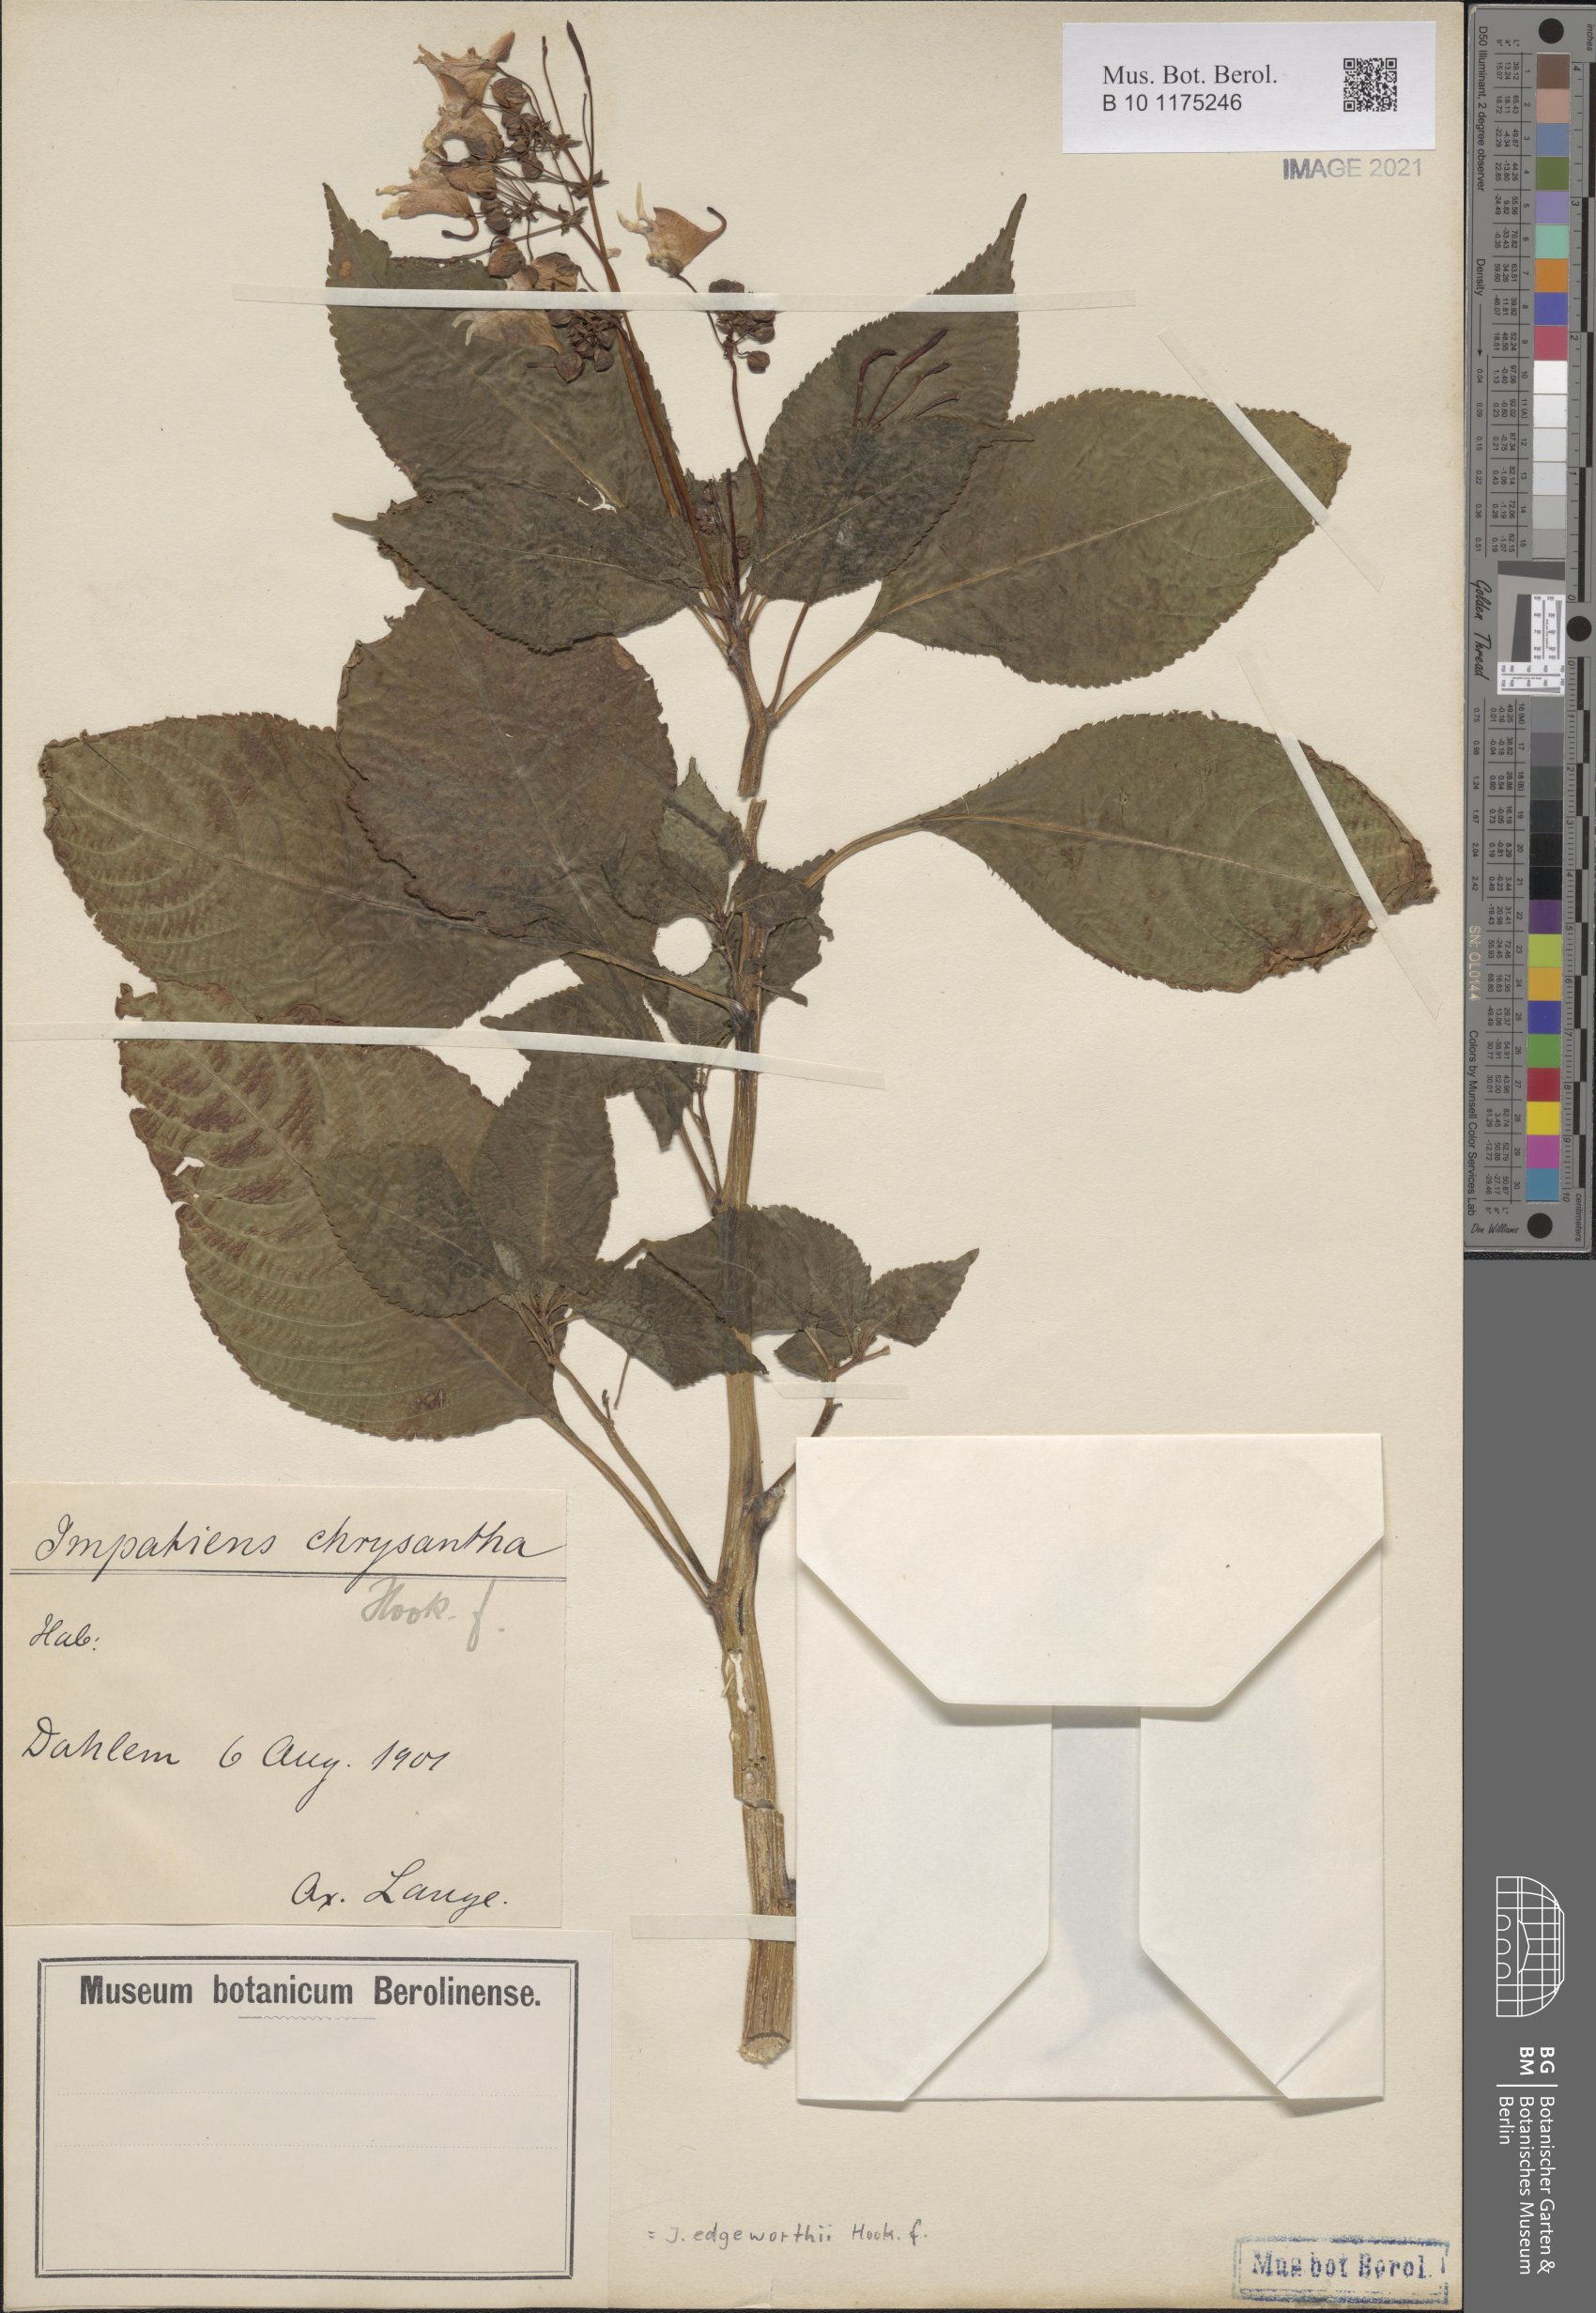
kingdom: Plantae
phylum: Tracheophyta
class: Magnoliopsida
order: Ericales
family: Balsaminaceae
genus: Impatiens
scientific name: Impatiens edgeworthii
